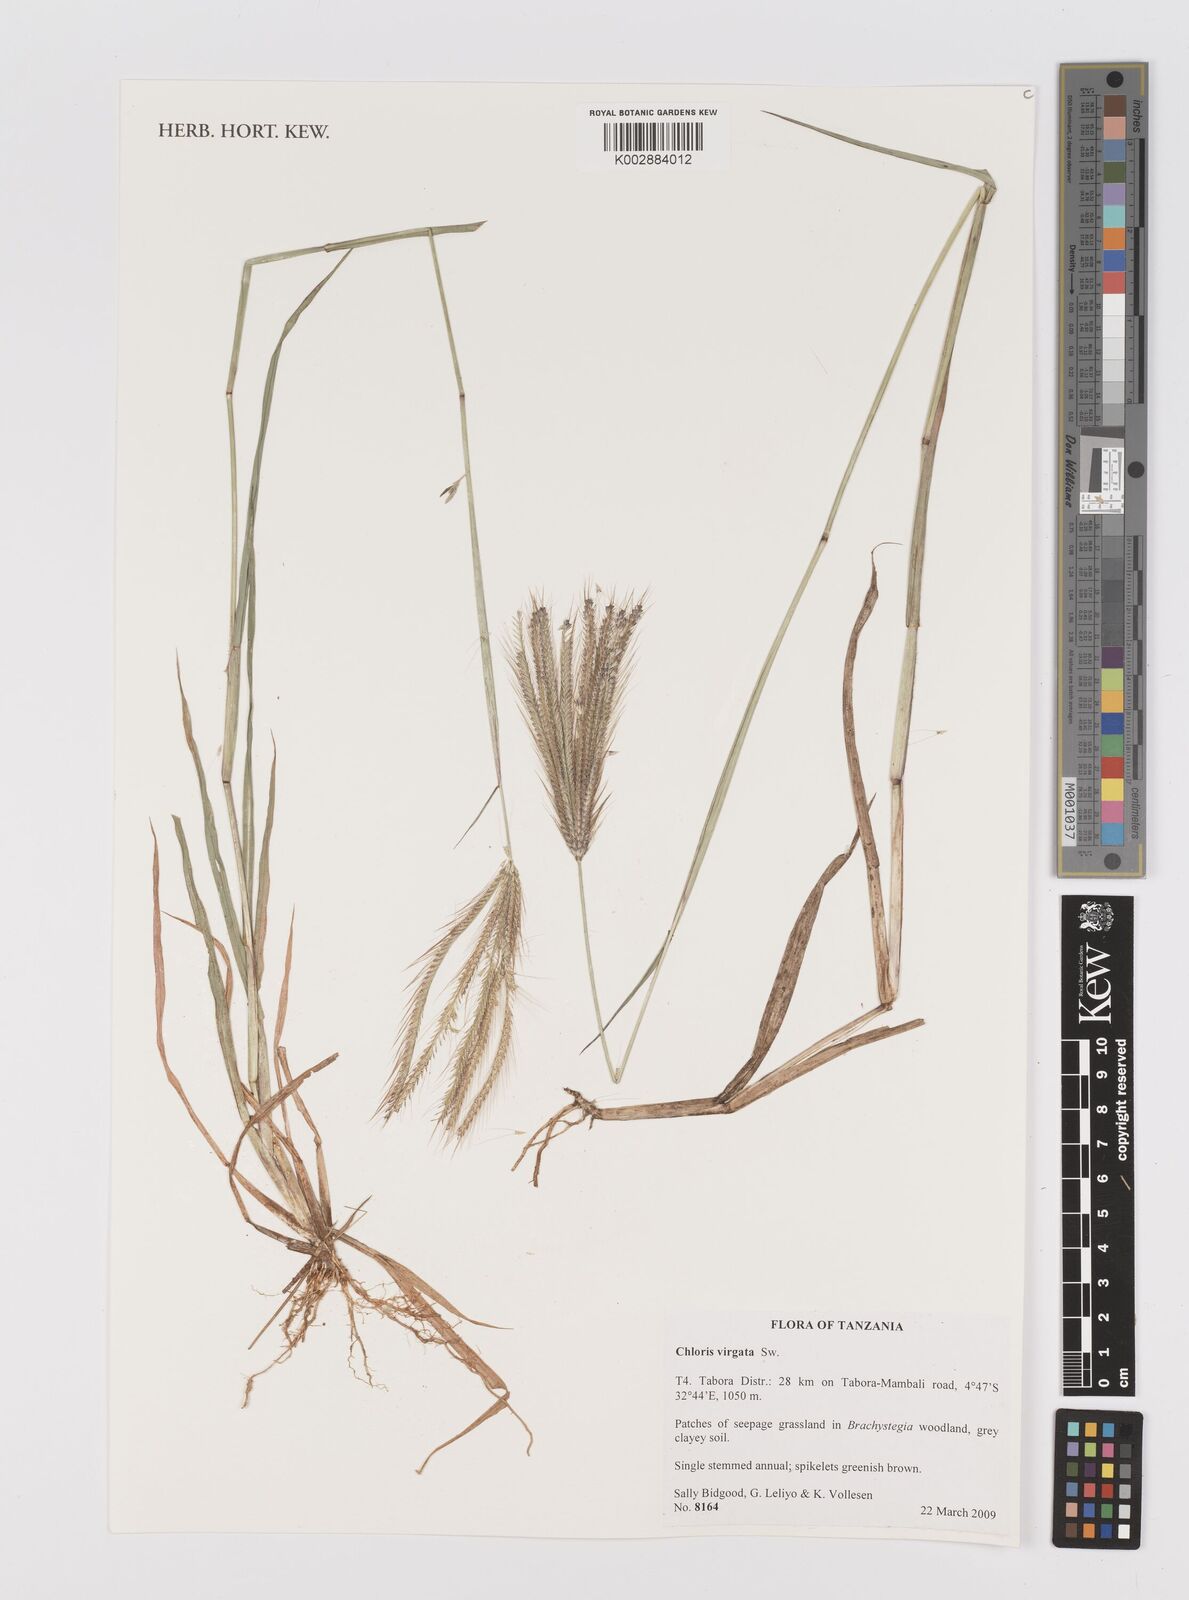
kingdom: Plantae
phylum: Tracheophyta
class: Liliopsida
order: Poales
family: Poaceae
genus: Chloris
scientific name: Chloris virgata
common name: Feathery rhodes-grass
